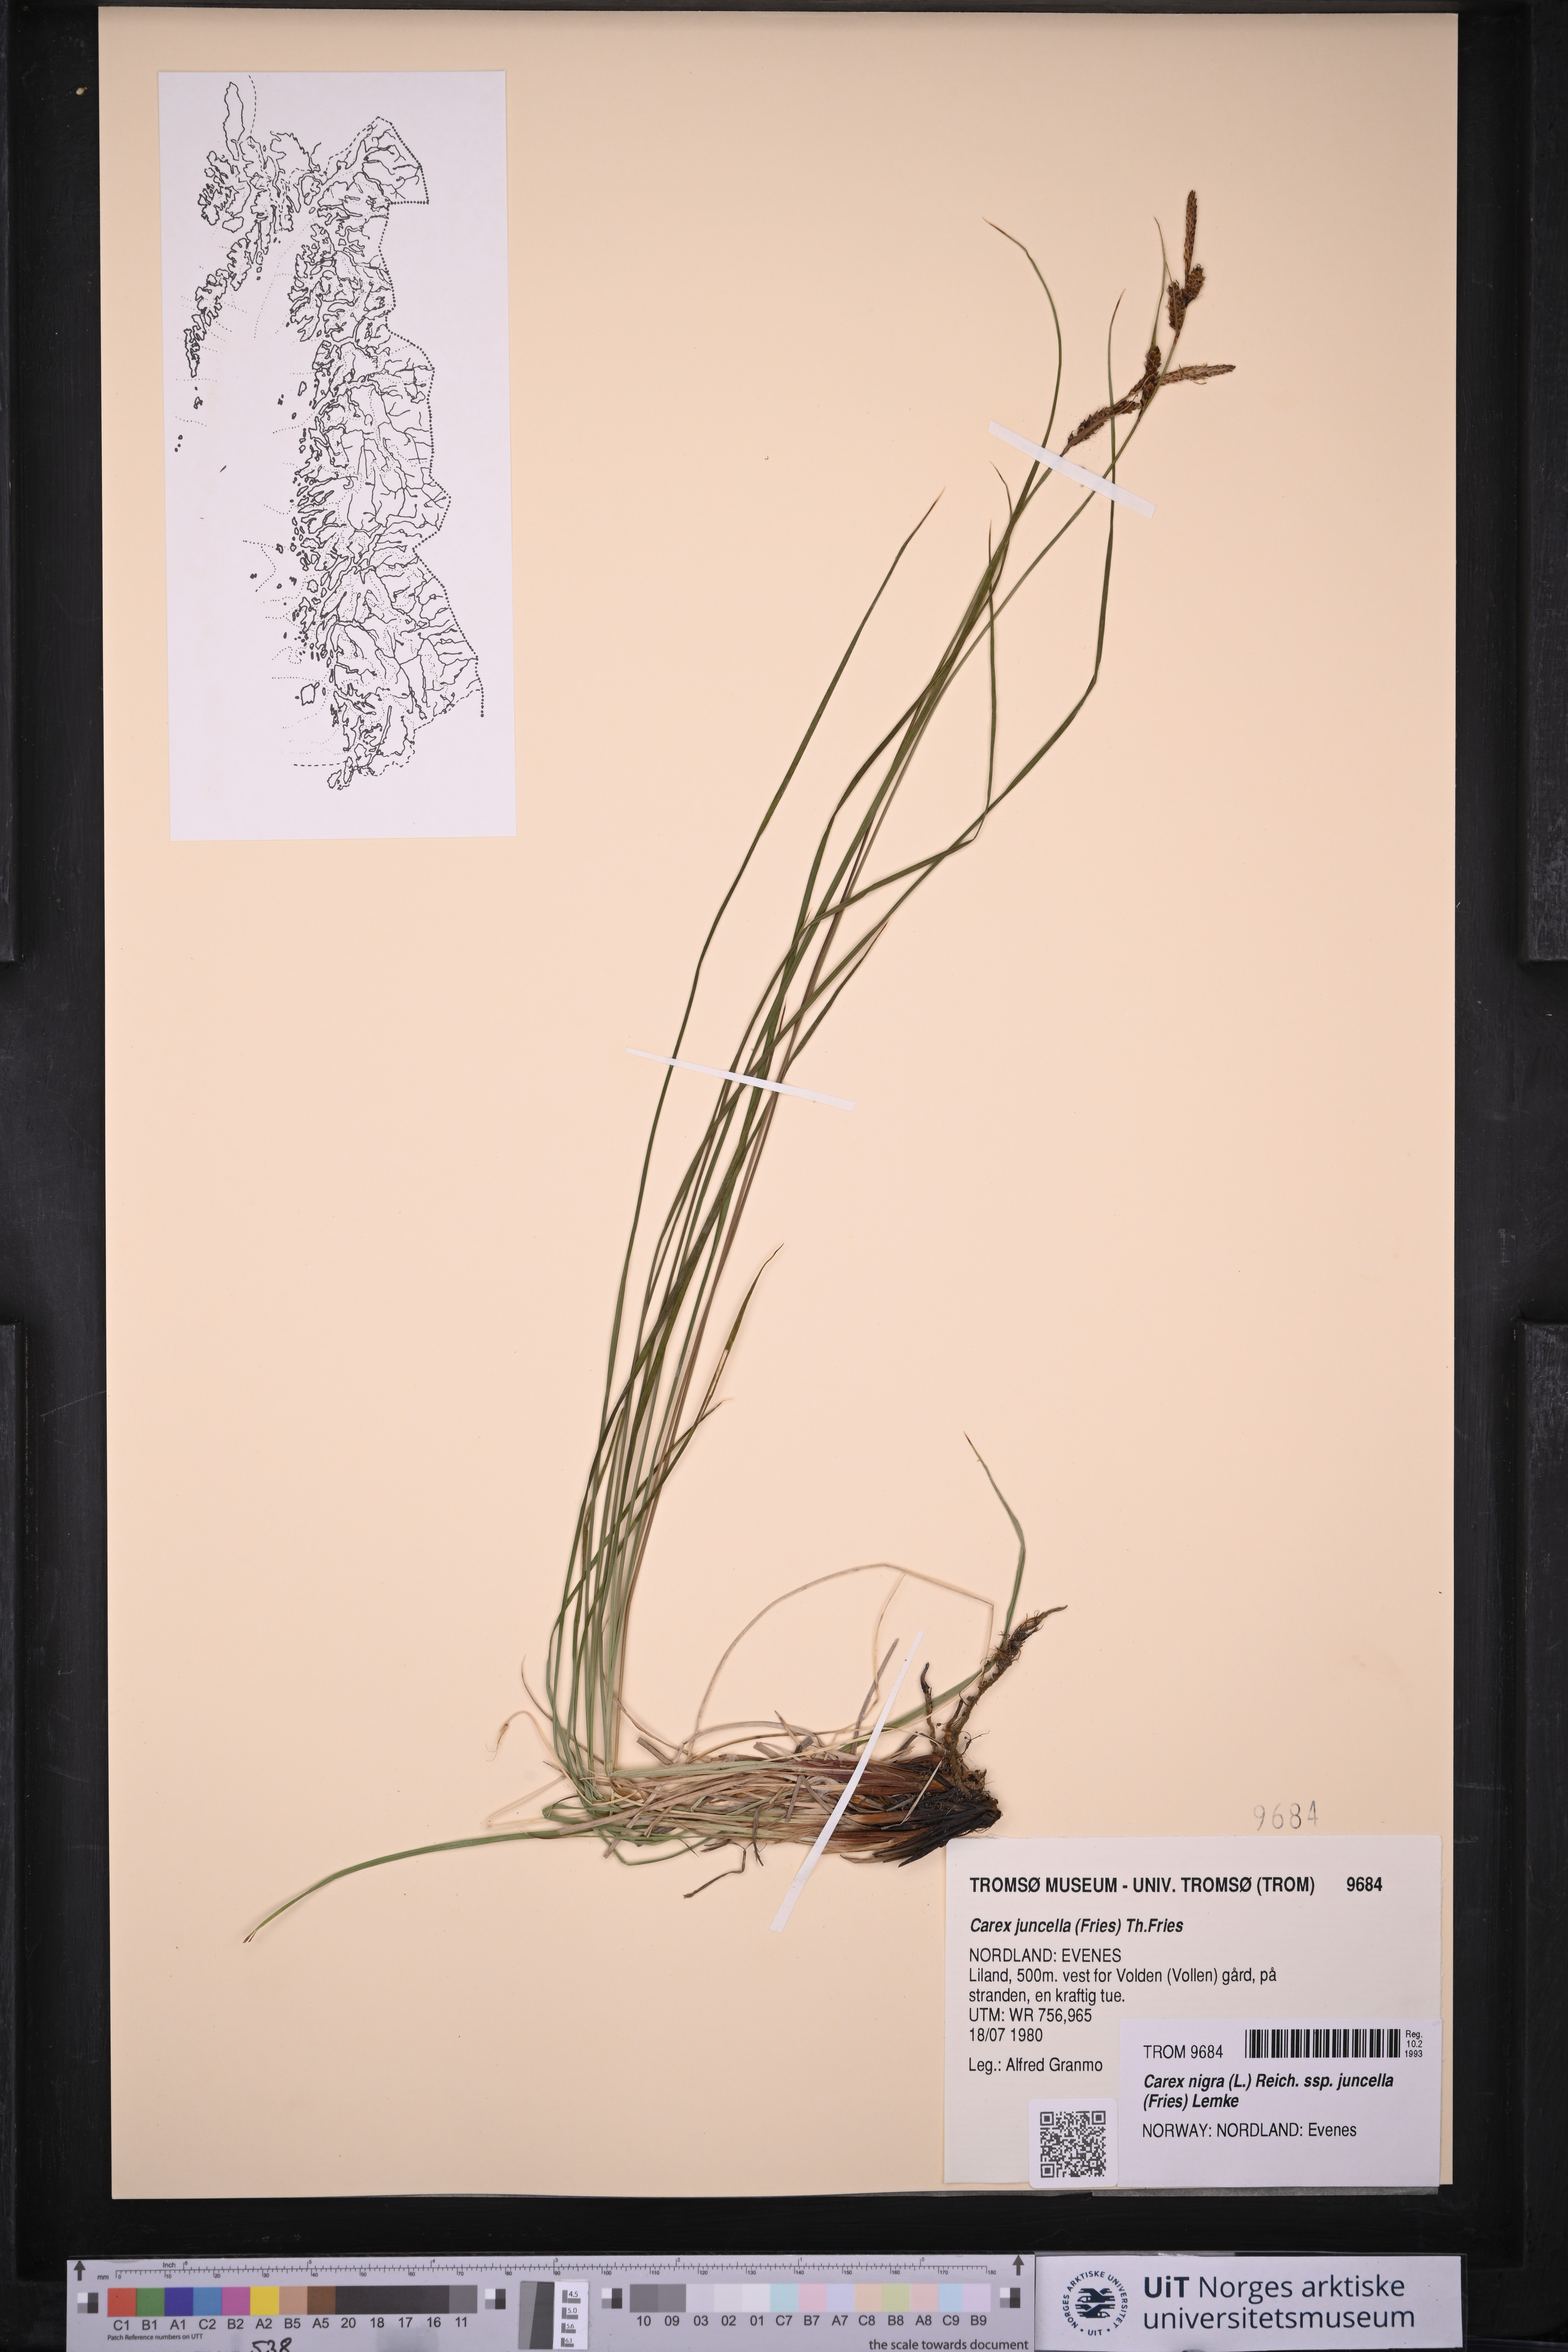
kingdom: Plantae
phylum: Tracheophyta
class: Liliopsida
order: Poales
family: Cyperaceae
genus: Carex
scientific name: Carex nigra
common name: Common sedge
